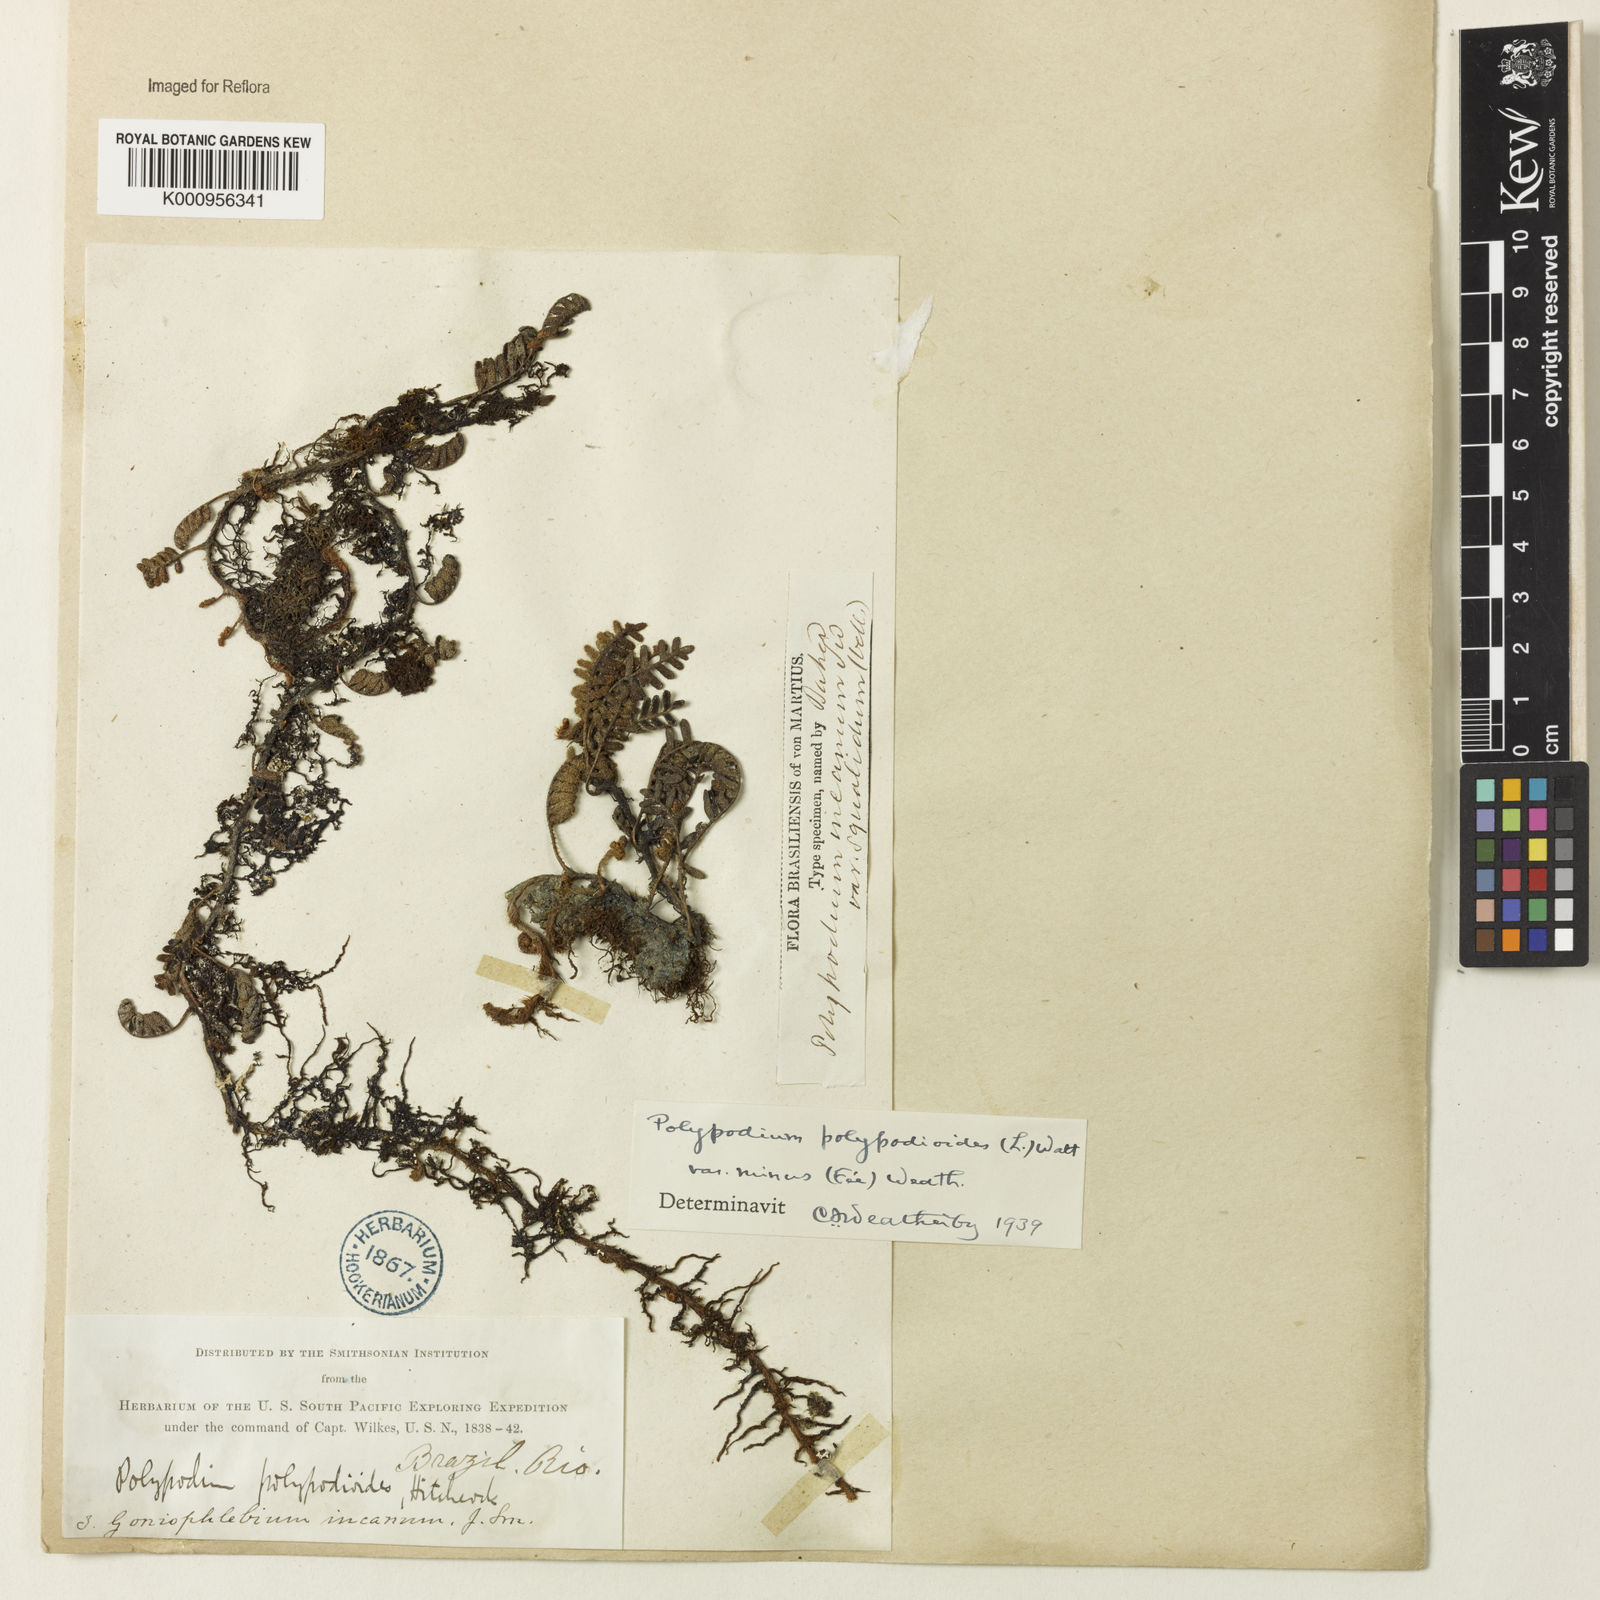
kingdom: Plantae
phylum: Tracheophyta
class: Polypodiopsida
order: Polypodiales
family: Polypodiaceae
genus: Pleopeltis
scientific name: Pleopeltis polypodioides
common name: Resurrection fern
